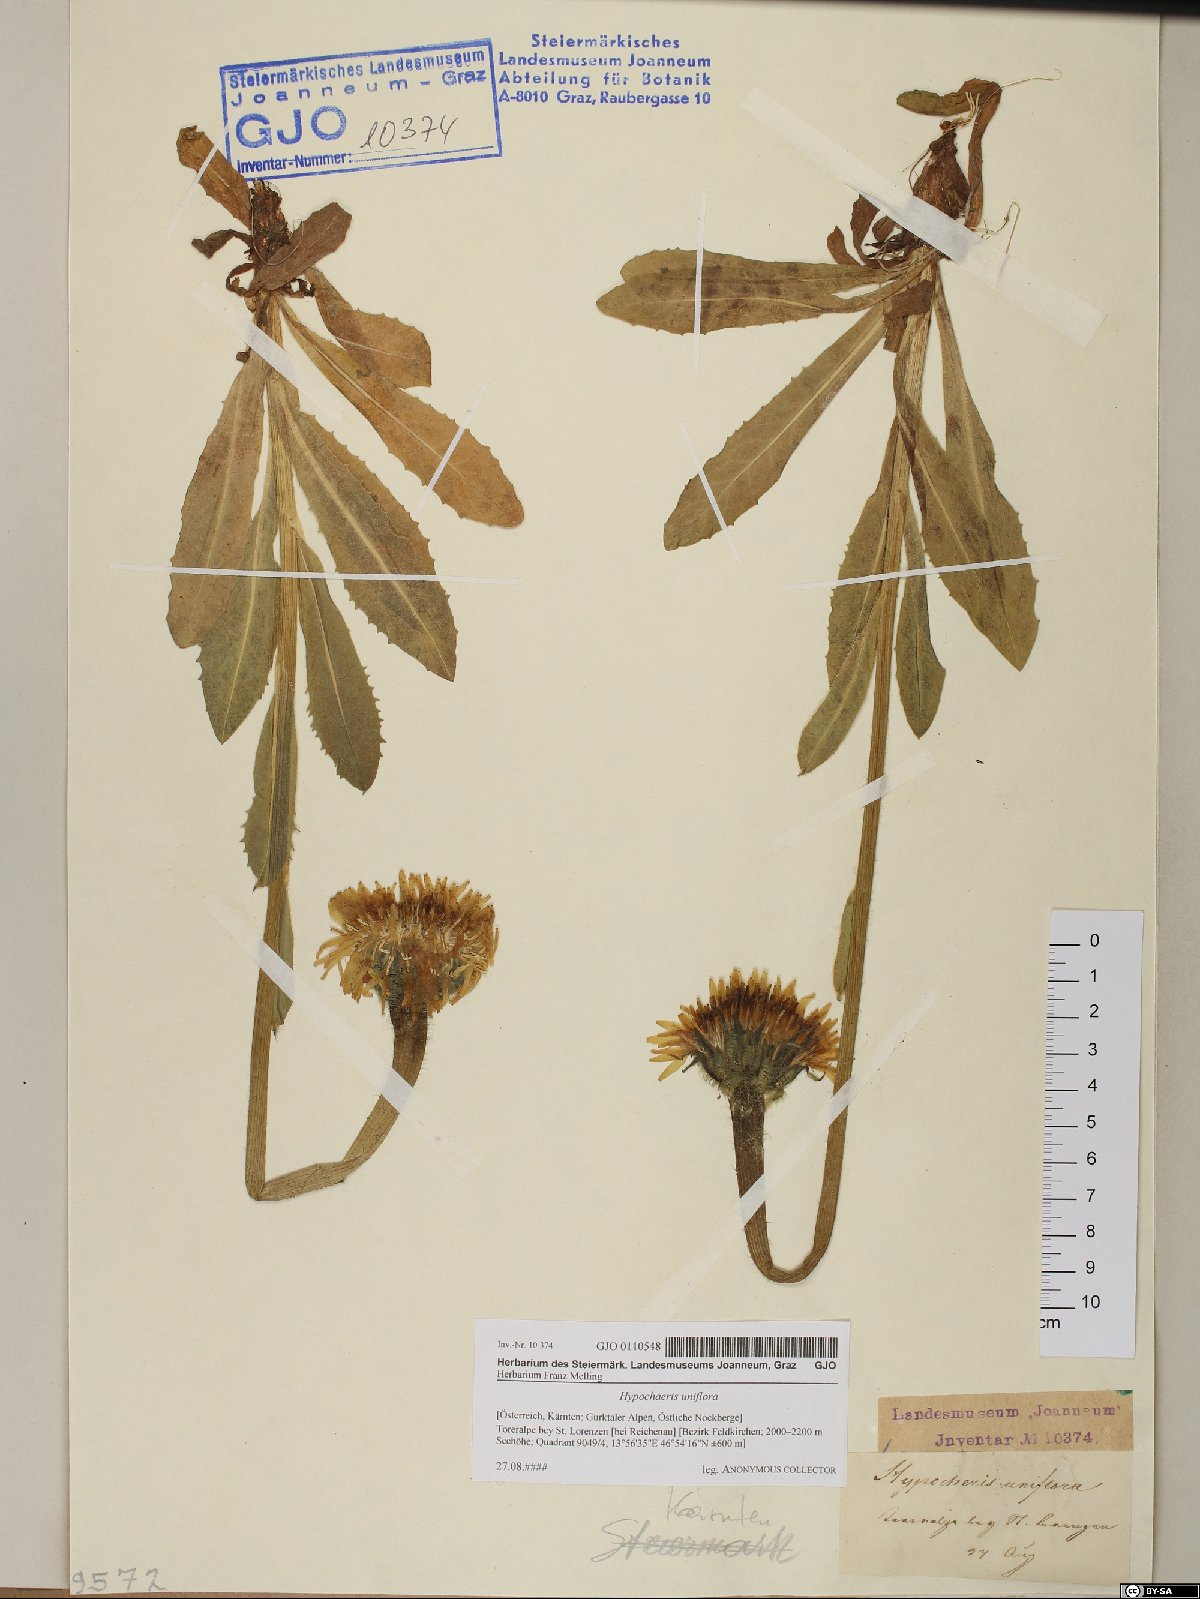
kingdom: Plantae
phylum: Tracheophyta
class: Magnoliopsida
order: Asterales
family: Asteraceae
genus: Trommsdorffia
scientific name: Trommsdorffia uniflora
